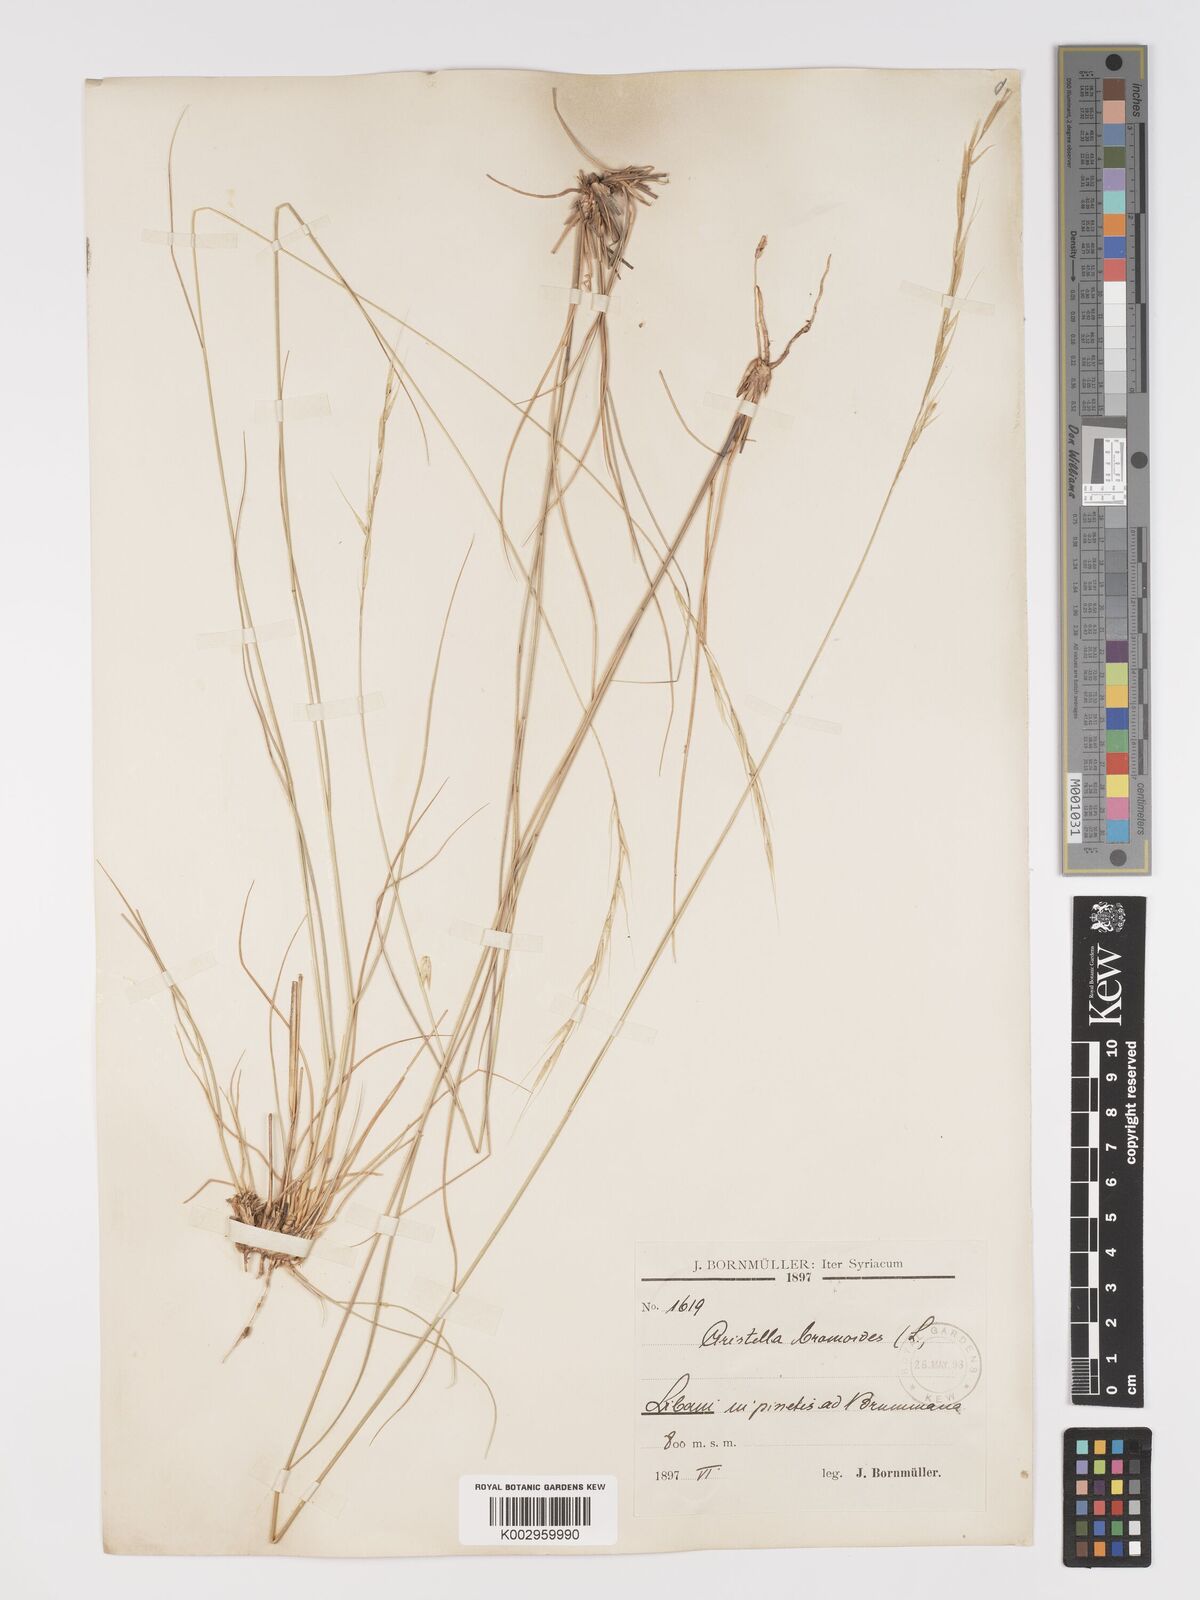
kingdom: Plantae
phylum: Tracheophyta
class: Liliopsida
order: Poales
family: Poaceae
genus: Achnatherum
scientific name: Achnatherum bromoides
